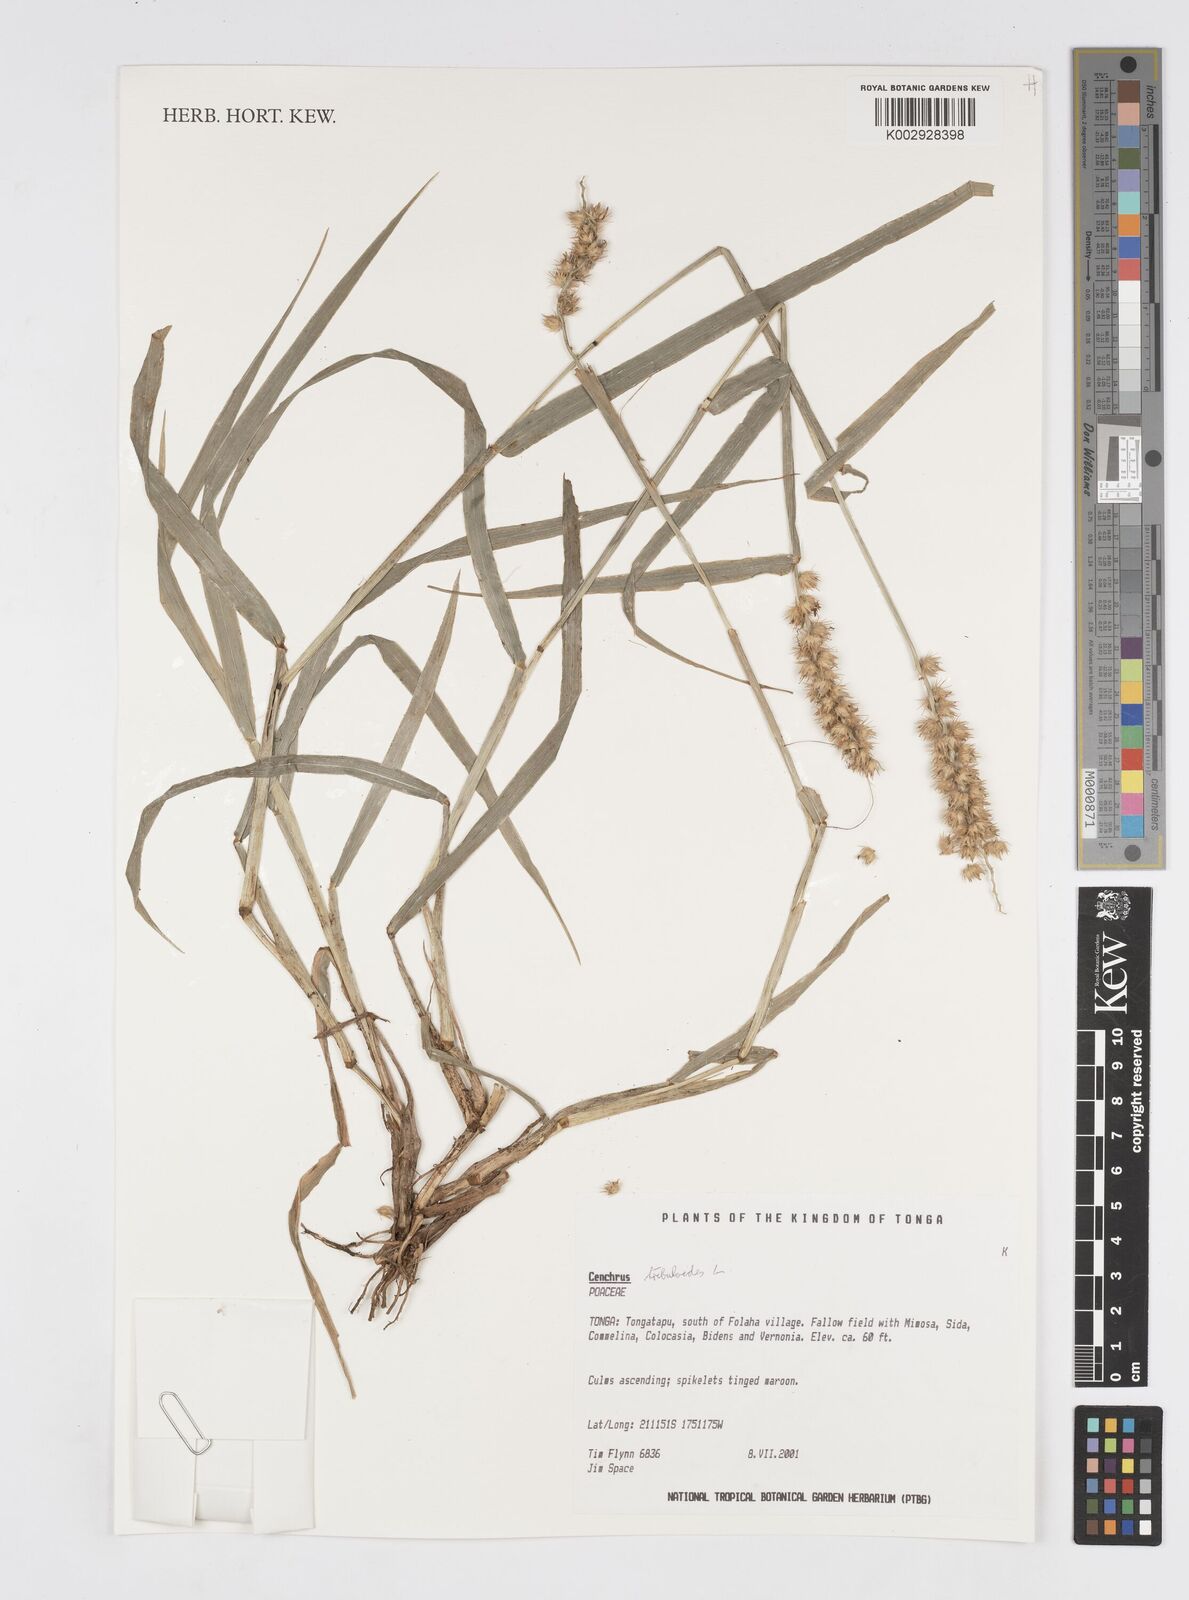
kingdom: Plantae
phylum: Tracheophyta
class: Liliopsida
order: Poales
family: Poaceae
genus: Cenchrus
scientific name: Cenchrus tribuloides
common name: Dune sandbur
